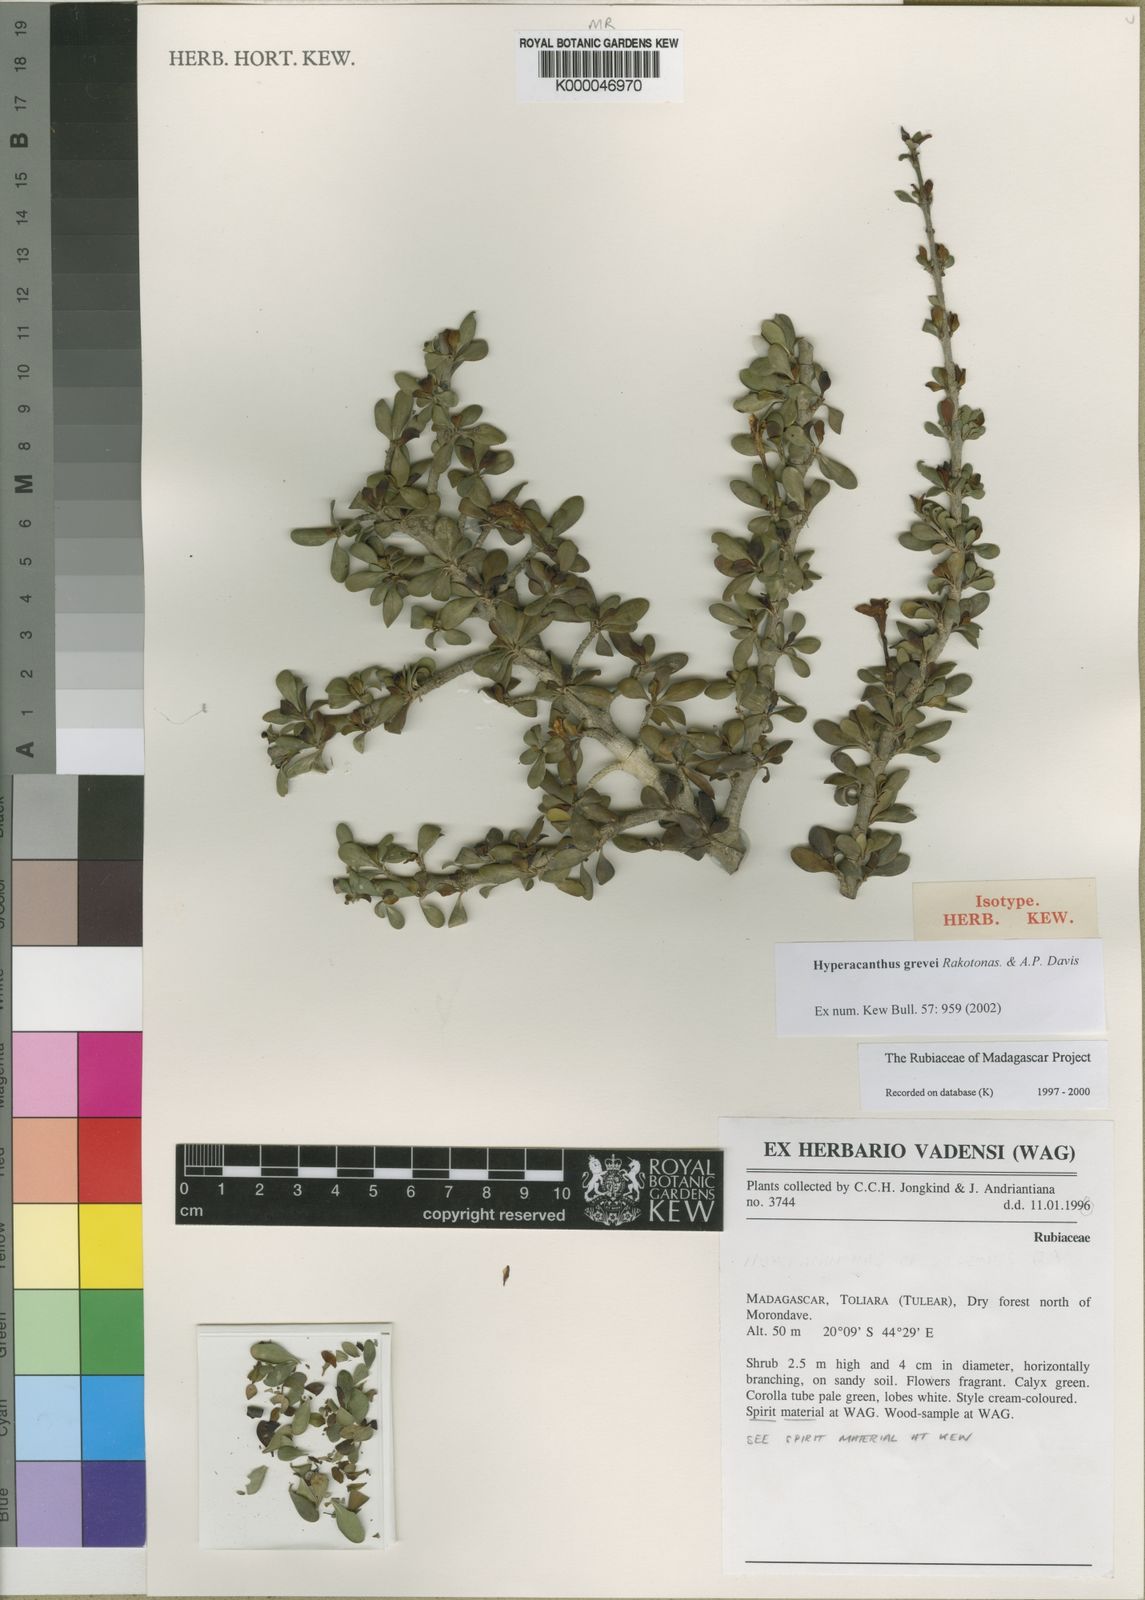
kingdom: Plantae
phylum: Tracheophyta
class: Magnoliopsida
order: Gentianales
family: Rubiaceae
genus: Hyperacanthus
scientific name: Hyperacanthus grevei
